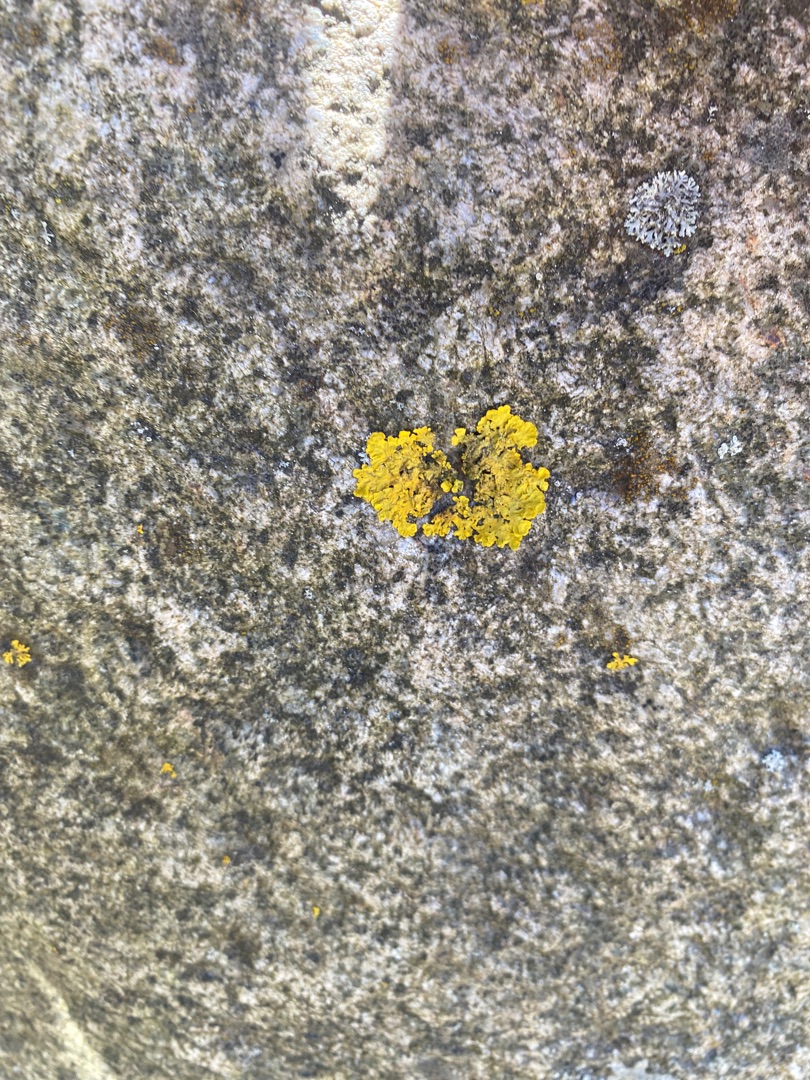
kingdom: Fungi
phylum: Ascomycota
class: Lecanoromycetes
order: Teloschistales
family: Teloschistaceae
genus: Xanthoria
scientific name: Xanthoria parietina
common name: Almindelig væggelav
